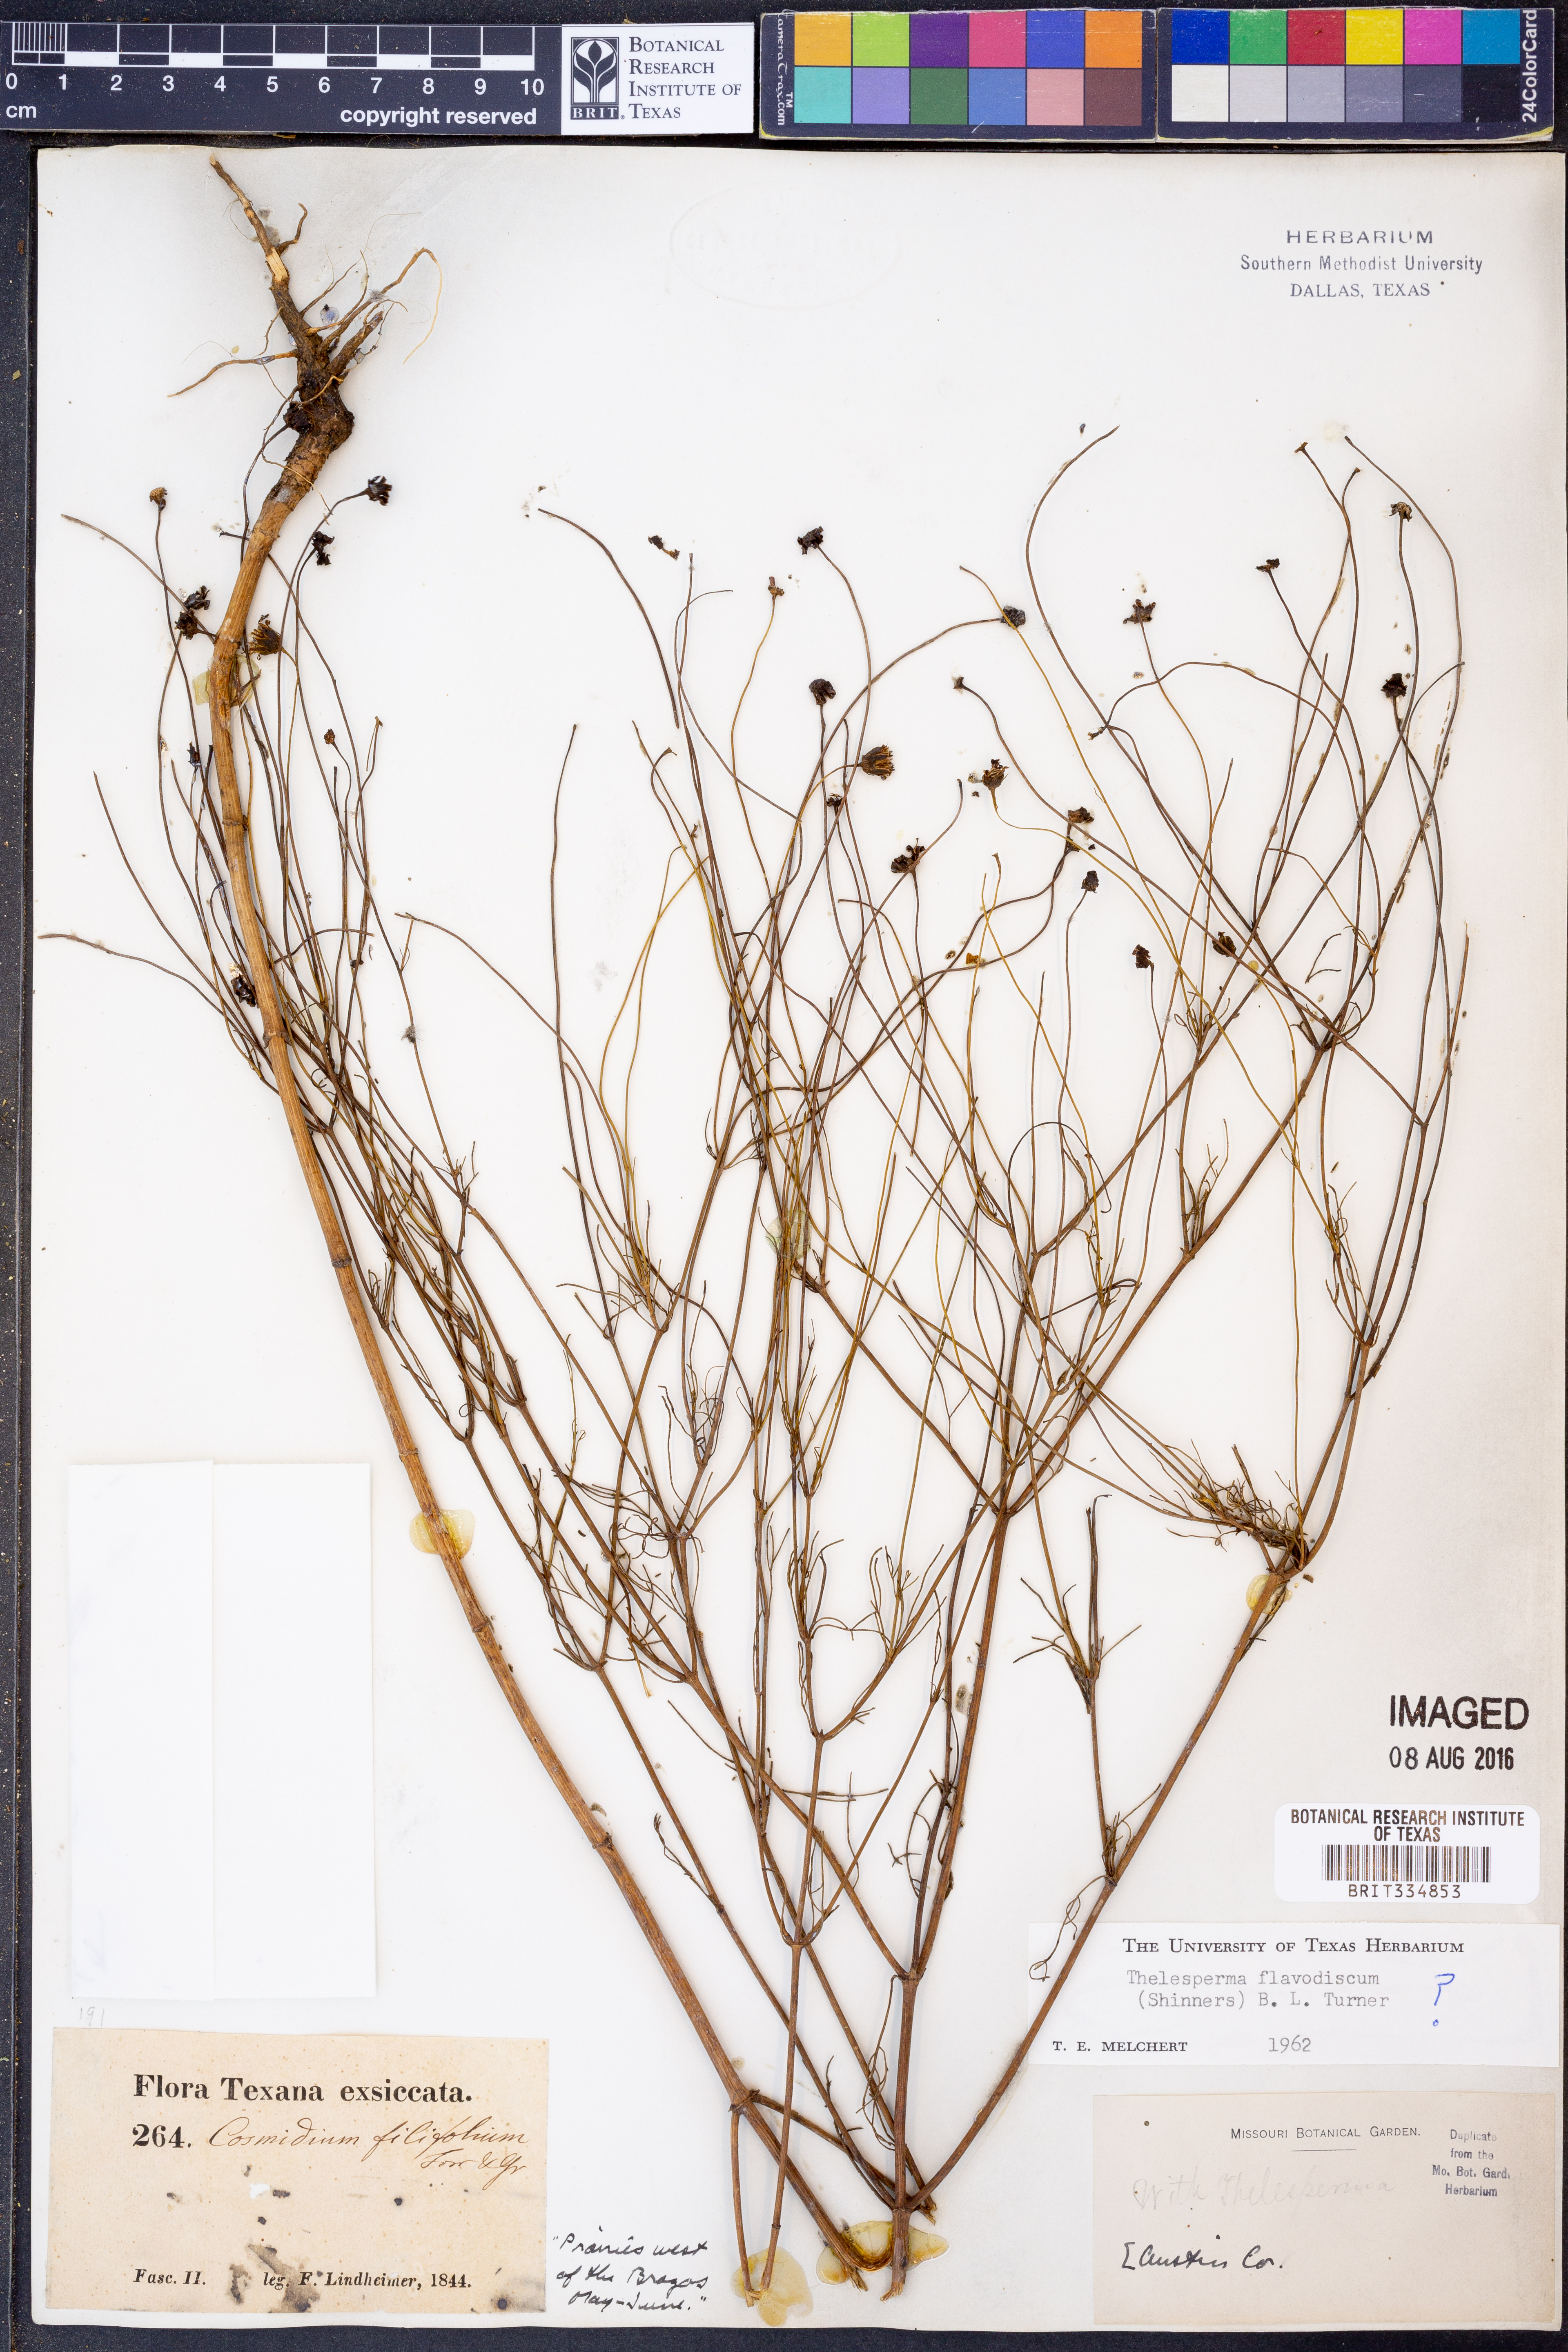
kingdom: Plantae
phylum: Tracheophyta
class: Magnoliopsida
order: Asterales
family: Asteraceae
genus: Thelesperma
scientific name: Thelesperma flavodiscum
